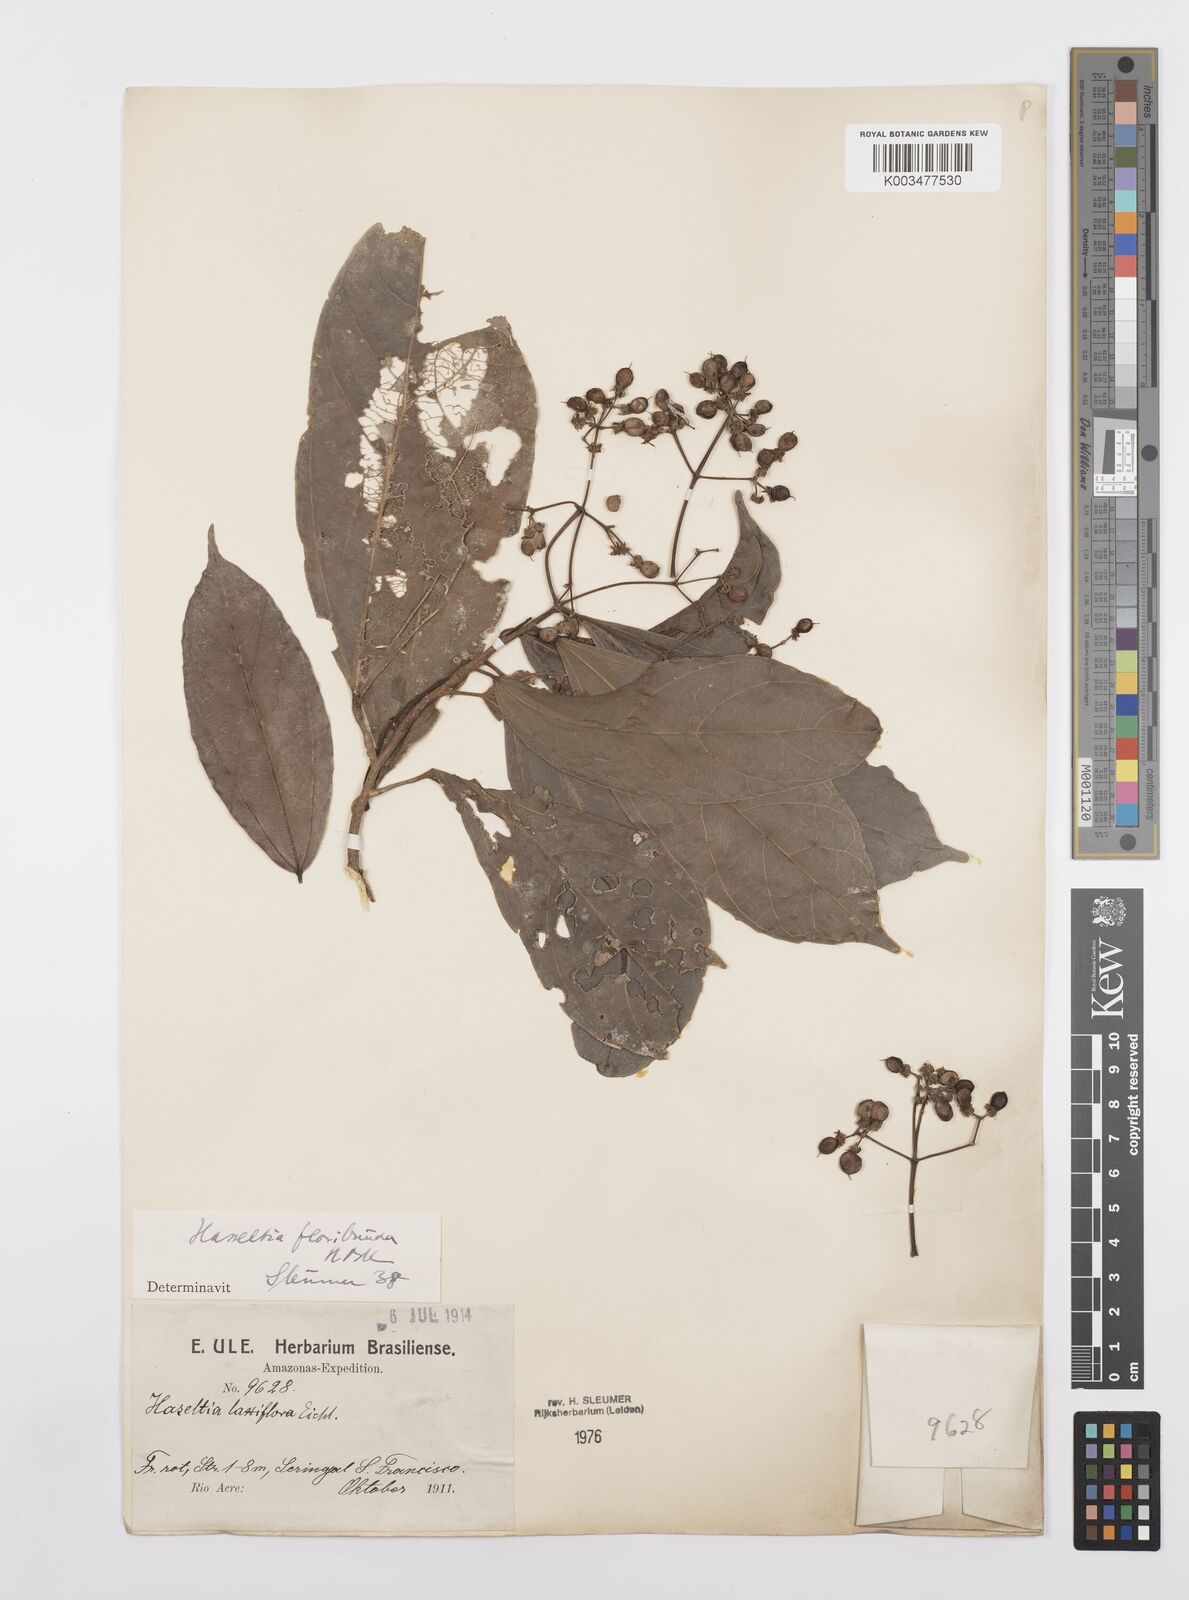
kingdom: Plantae
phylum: Tracheophyta
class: Magnoliopsida
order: Malpighiales
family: Salicaceae
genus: Hasseltia
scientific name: Hasseltia floribunda
